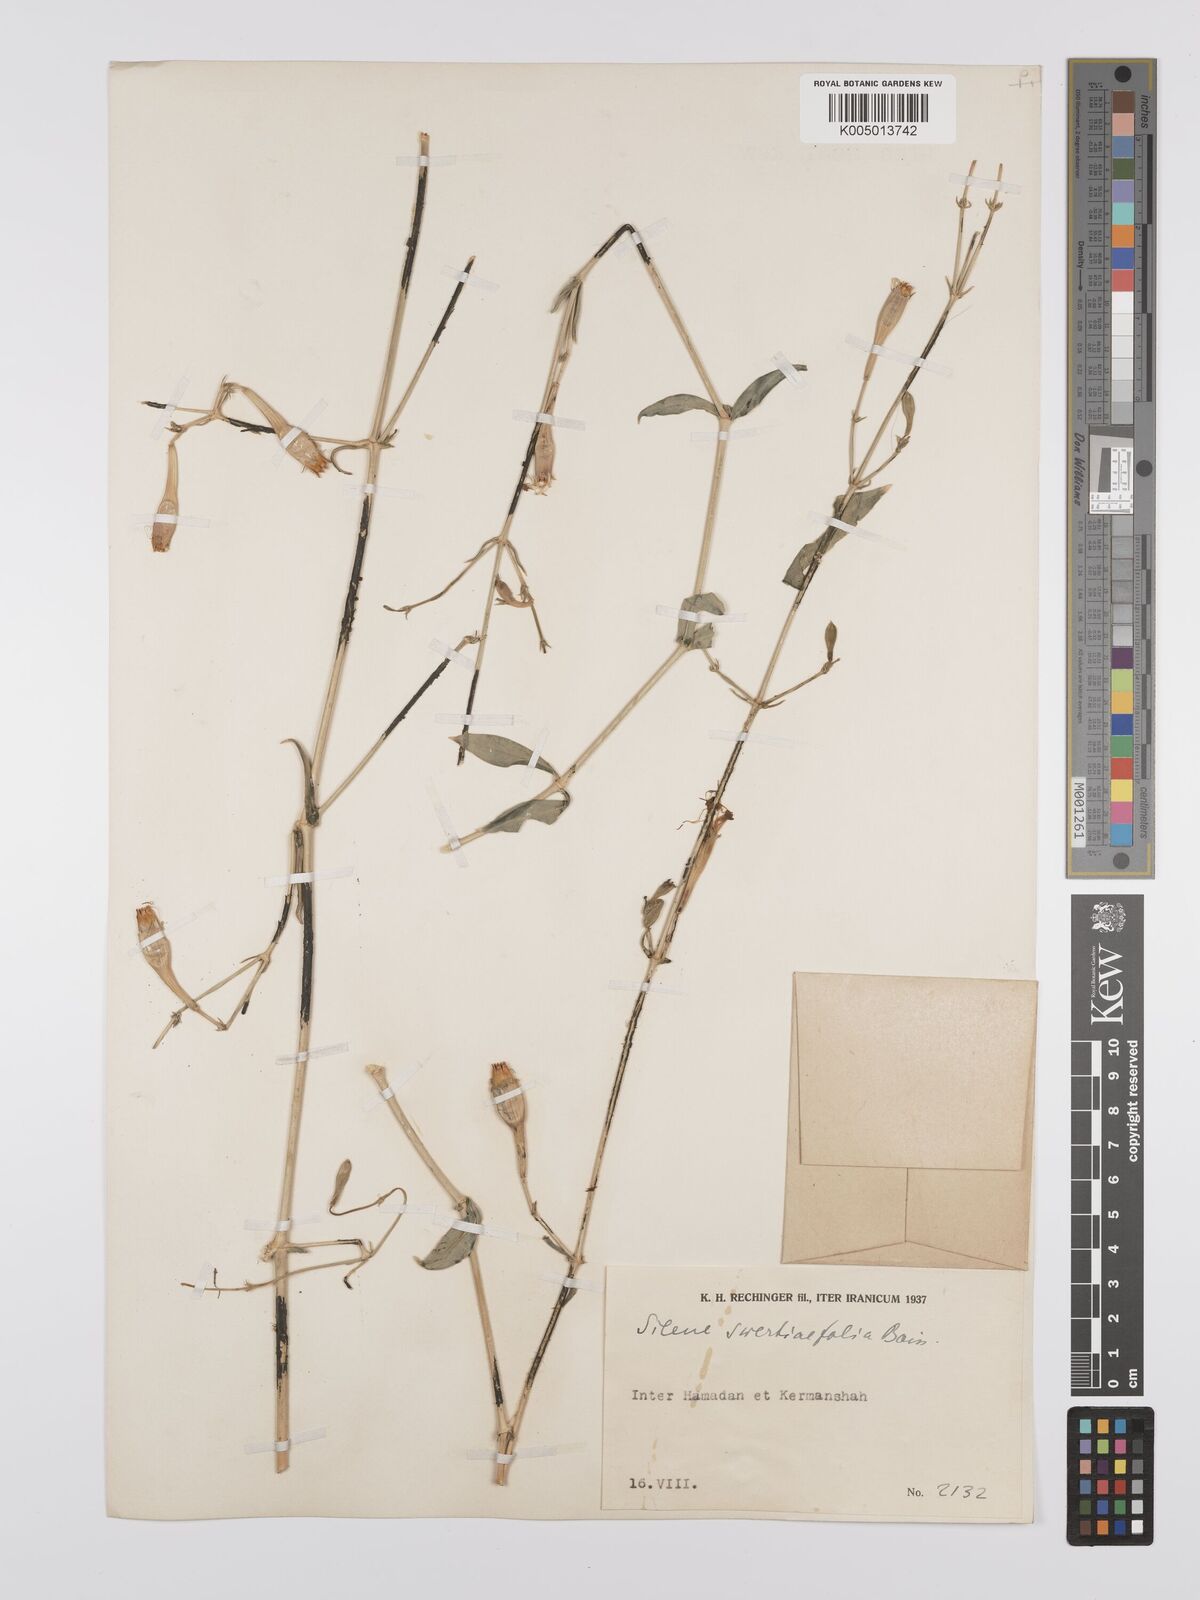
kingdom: Plantae
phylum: Tracheophyta
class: Magnoliopsida
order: Caryophyllales
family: Caryophyllaceae
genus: Silene
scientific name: Silene swertiifolia
